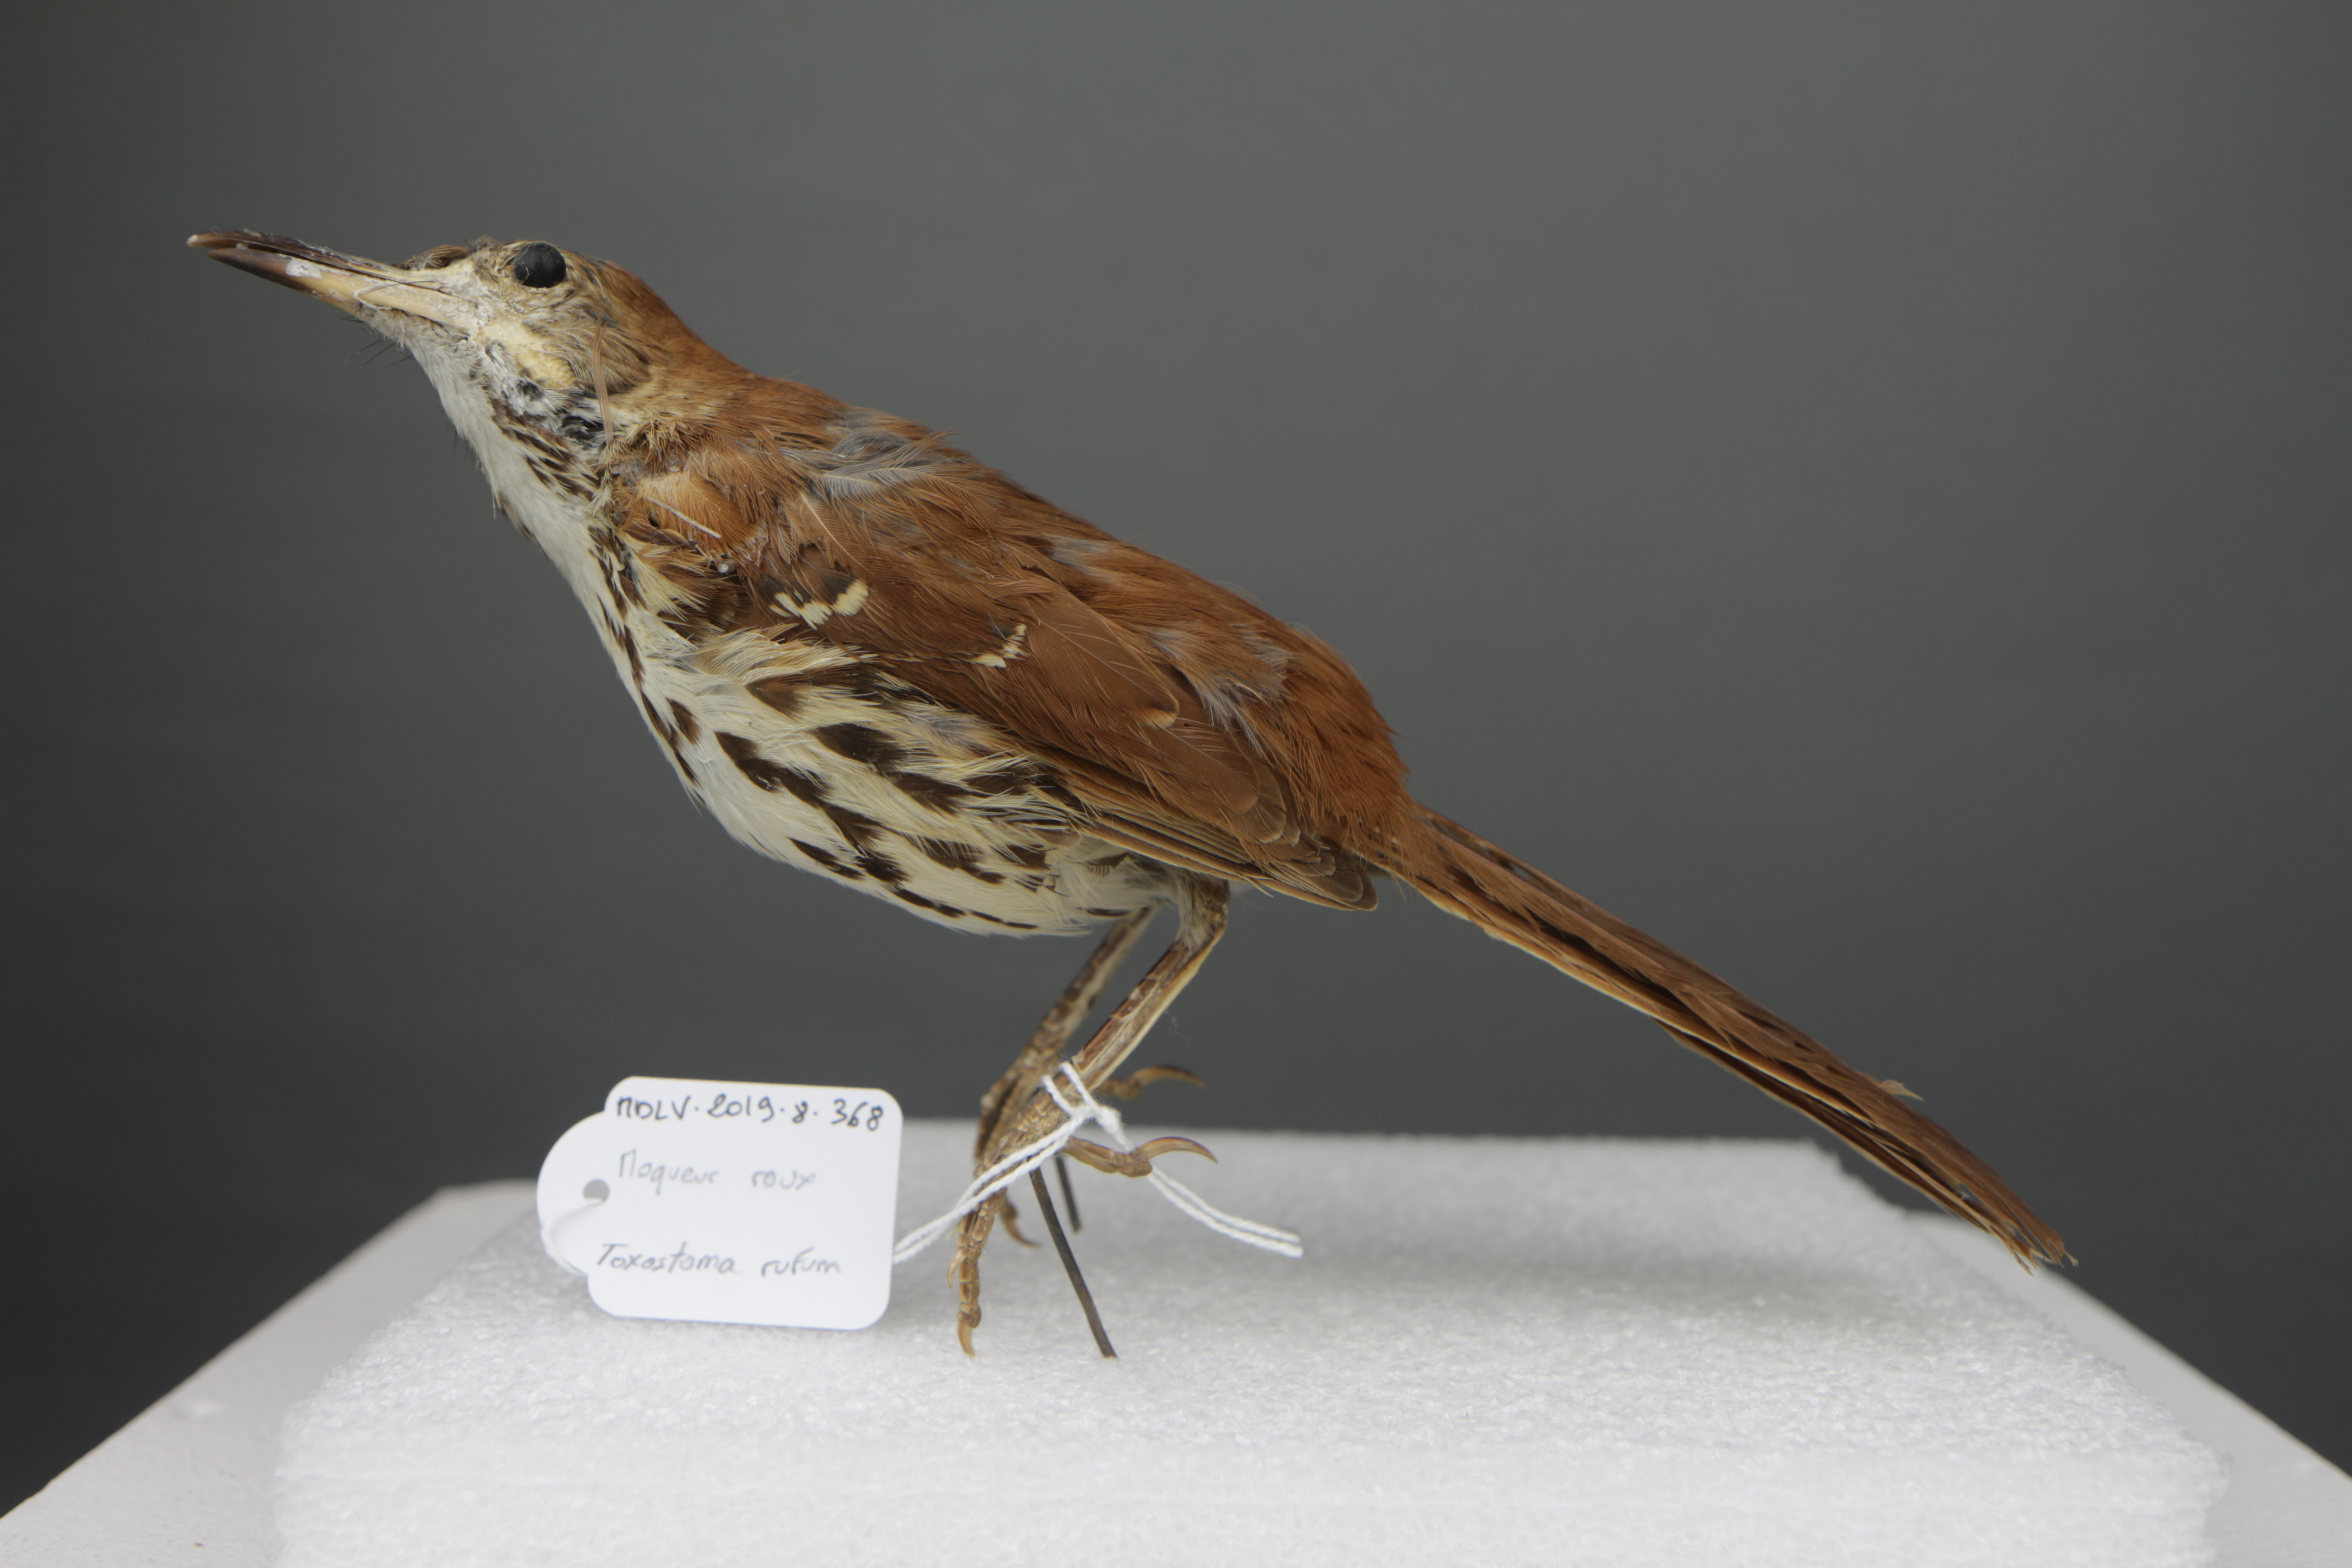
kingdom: Animalia
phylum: Chordata
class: Aves
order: Passeriformes
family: Mimidae
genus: Toxostoma
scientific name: Toxostoma rufum
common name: Brown thrasher
